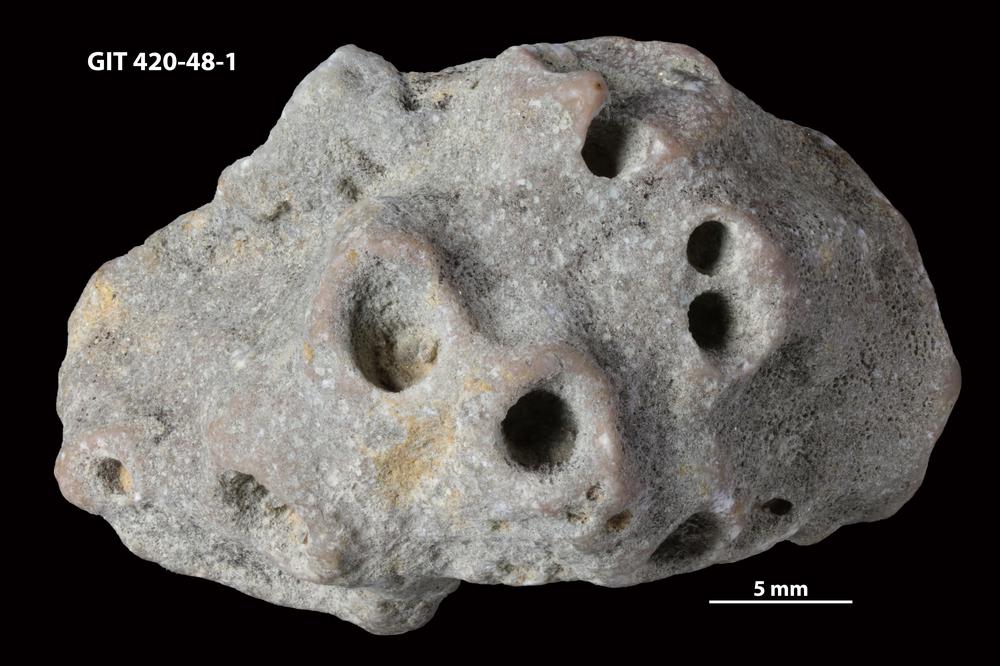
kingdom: Animalia
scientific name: Animalia
